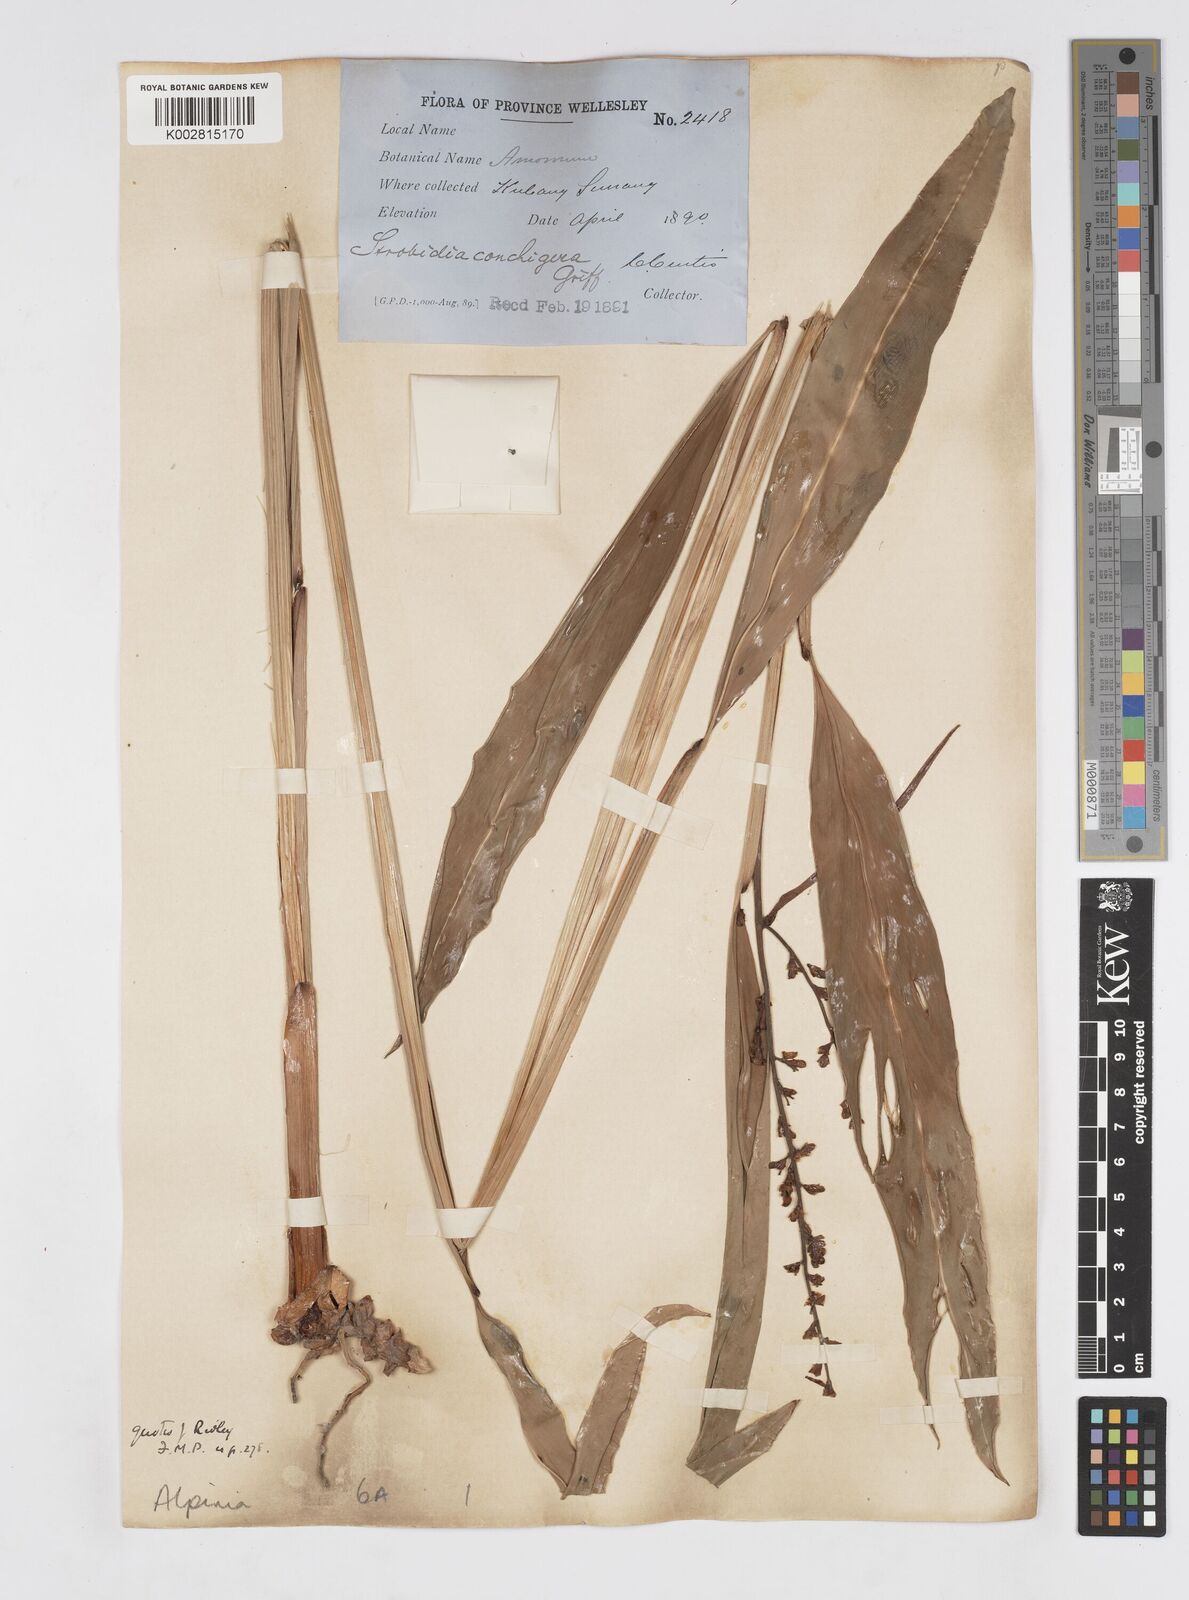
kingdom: Plantae
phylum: Tracheophyta
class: Liliopsida
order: Zingiberales
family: Zingiberaceae
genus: Alpinia
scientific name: Alpinia conchigera
